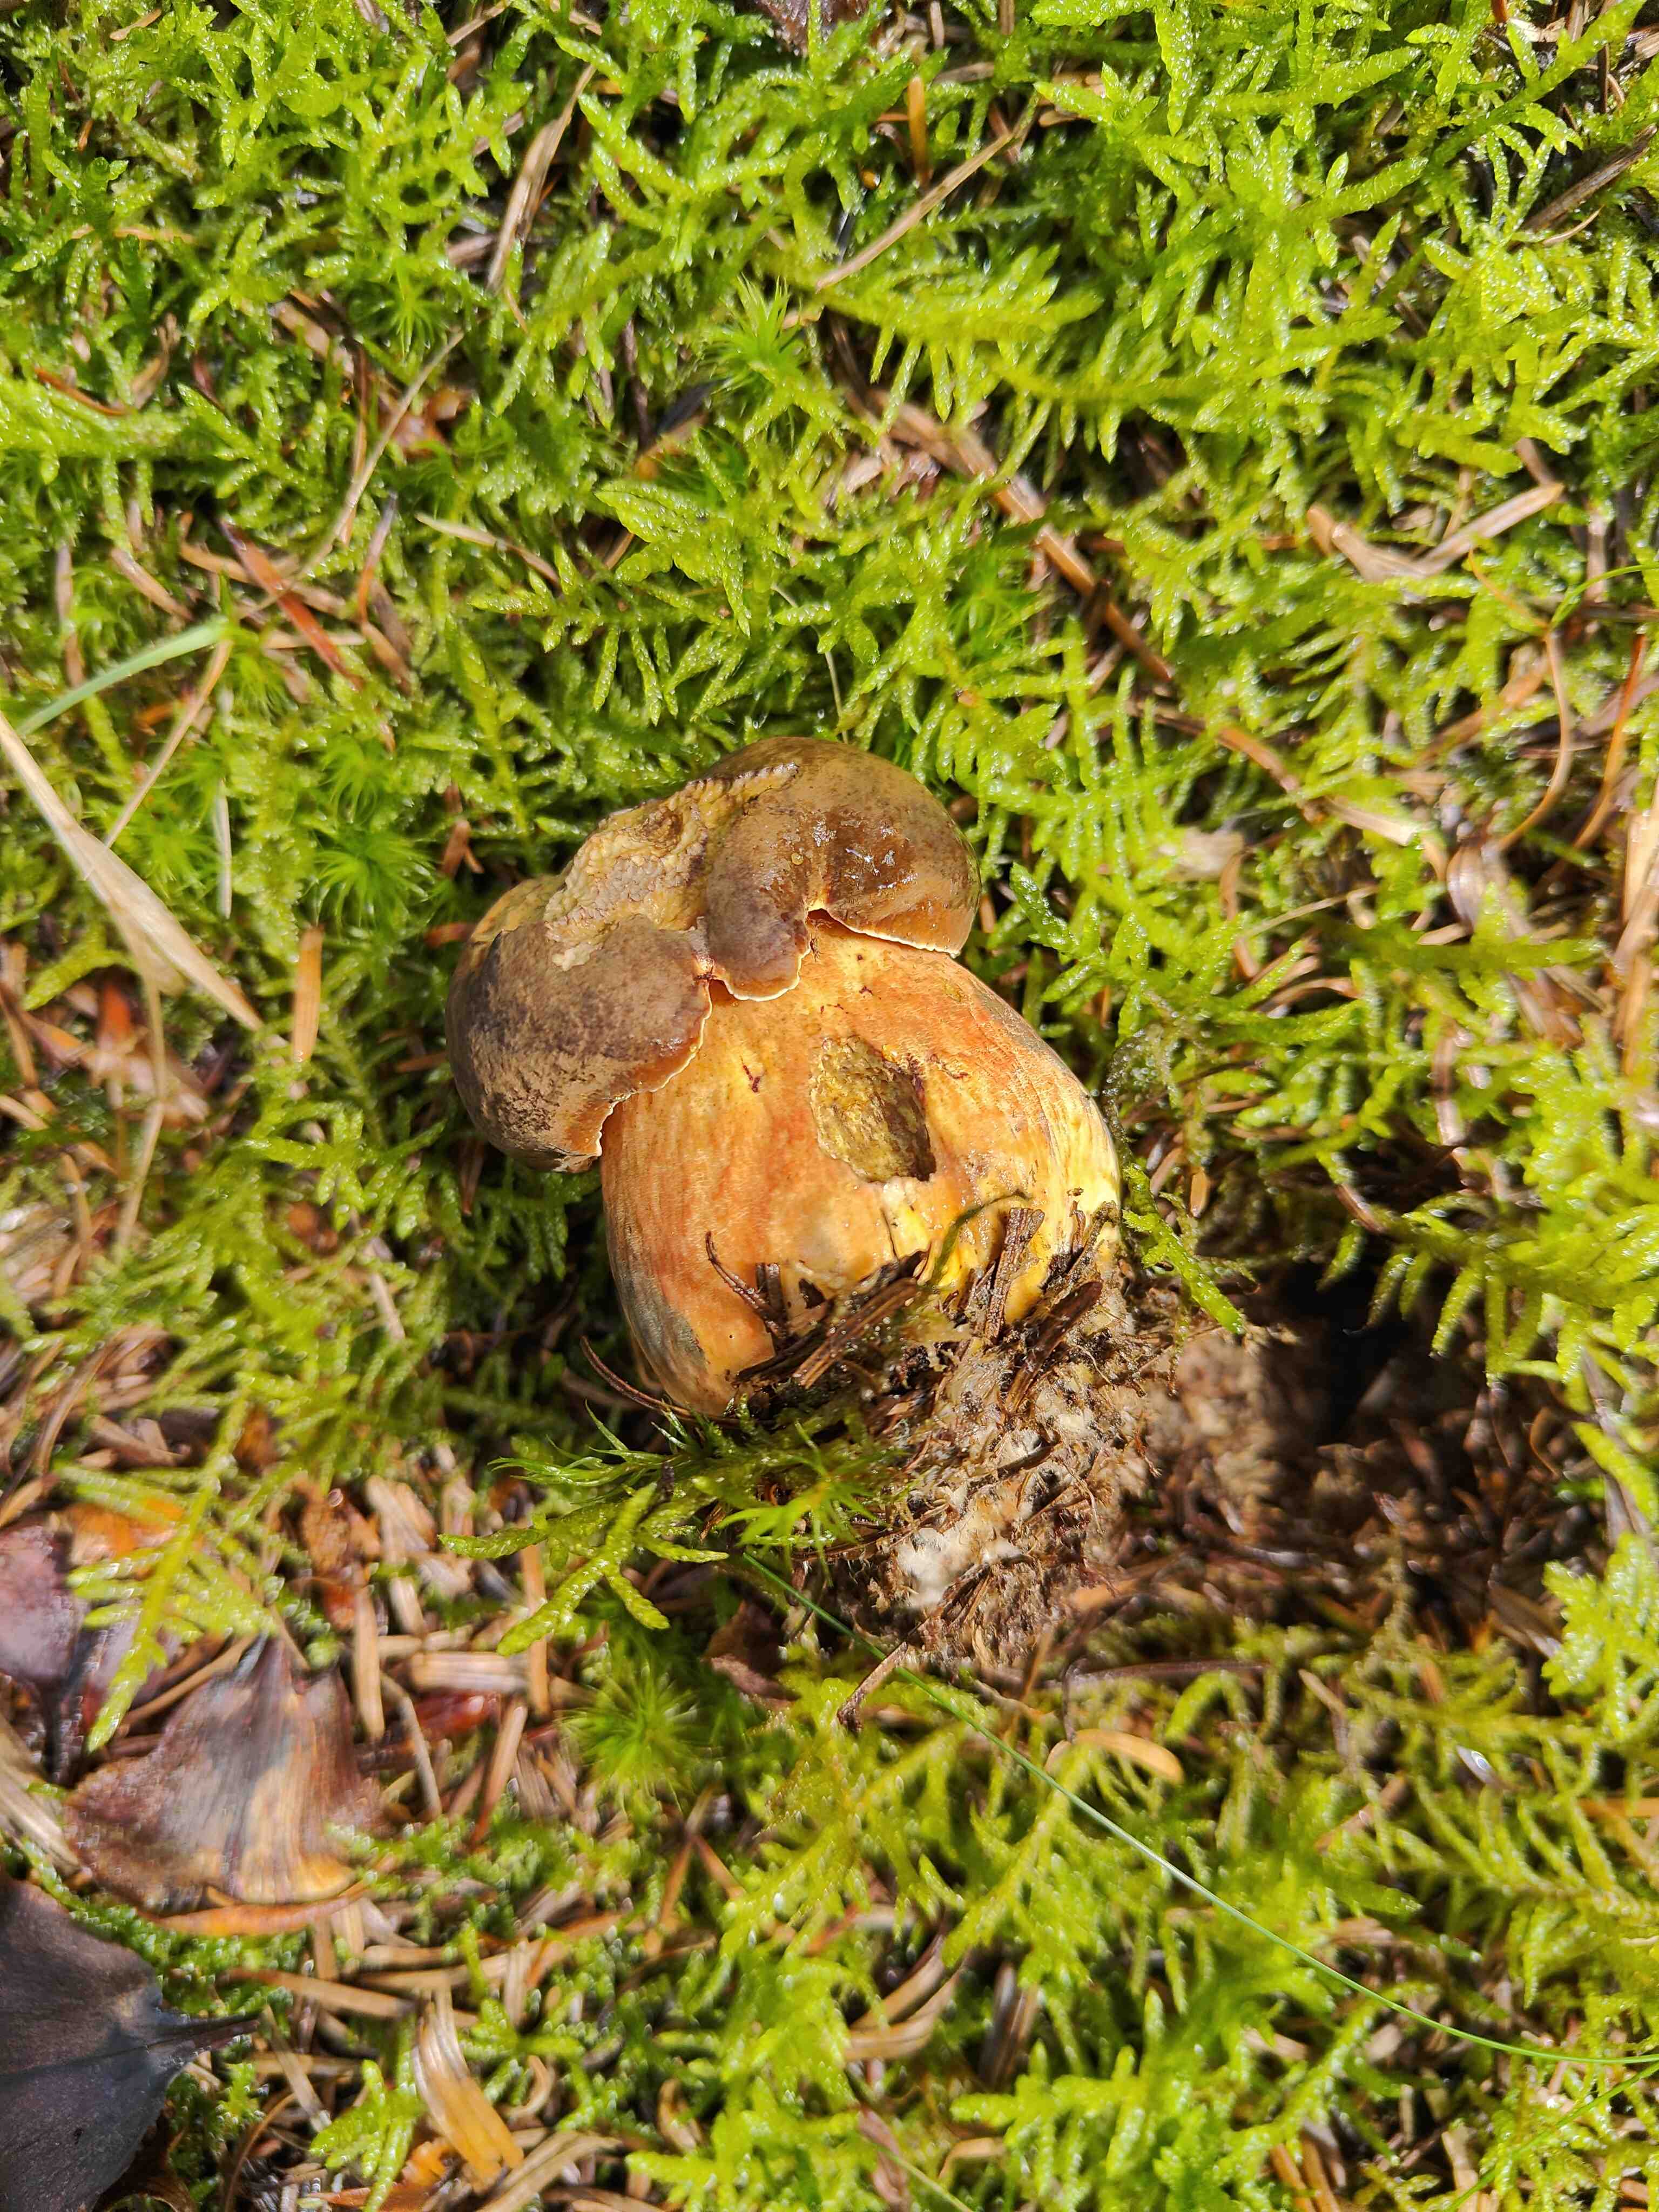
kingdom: Fungi
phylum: Basidiomycota
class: Agaricomycetes
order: Boletales
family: Boletaceae
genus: Neoboletus
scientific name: Neoboletus erythropus
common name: punktstokket indigorørhat
